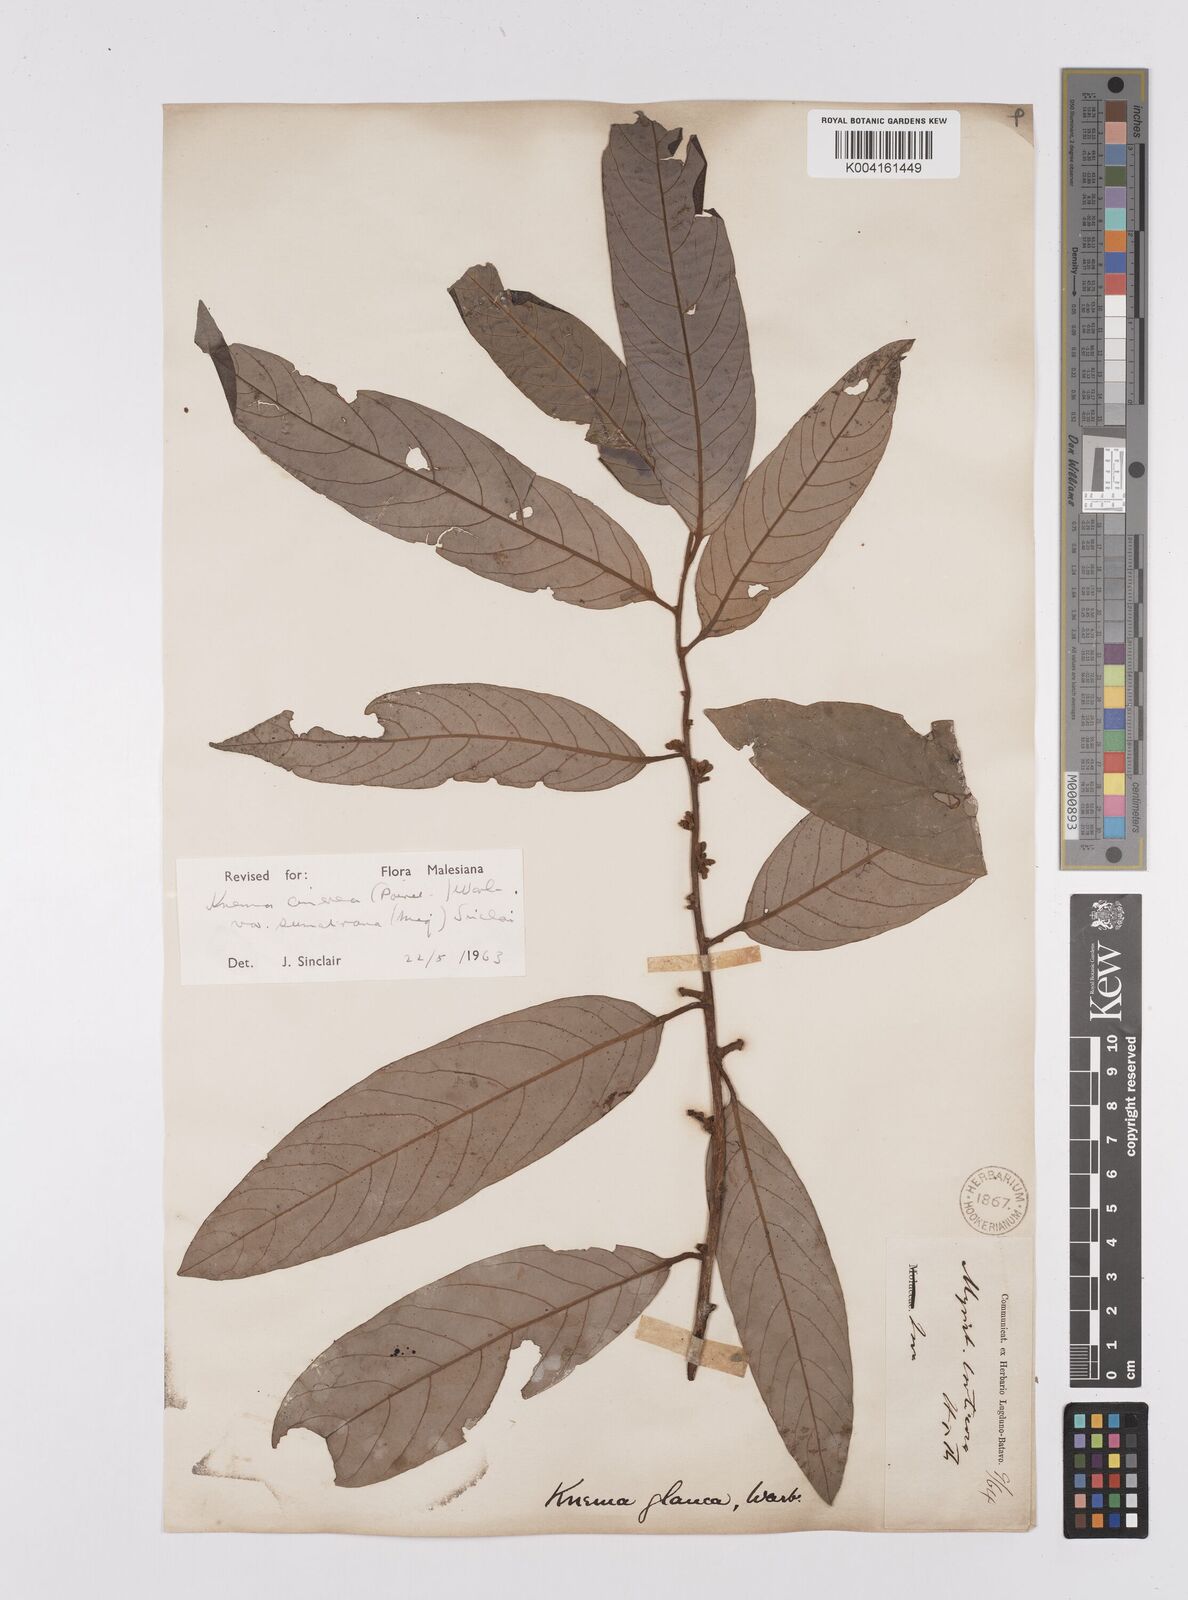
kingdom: Plantae
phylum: Tracheophyta
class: Magnoliopsida
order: Magnoliales
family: Myristicaceae
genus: Knema
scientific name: Knema
